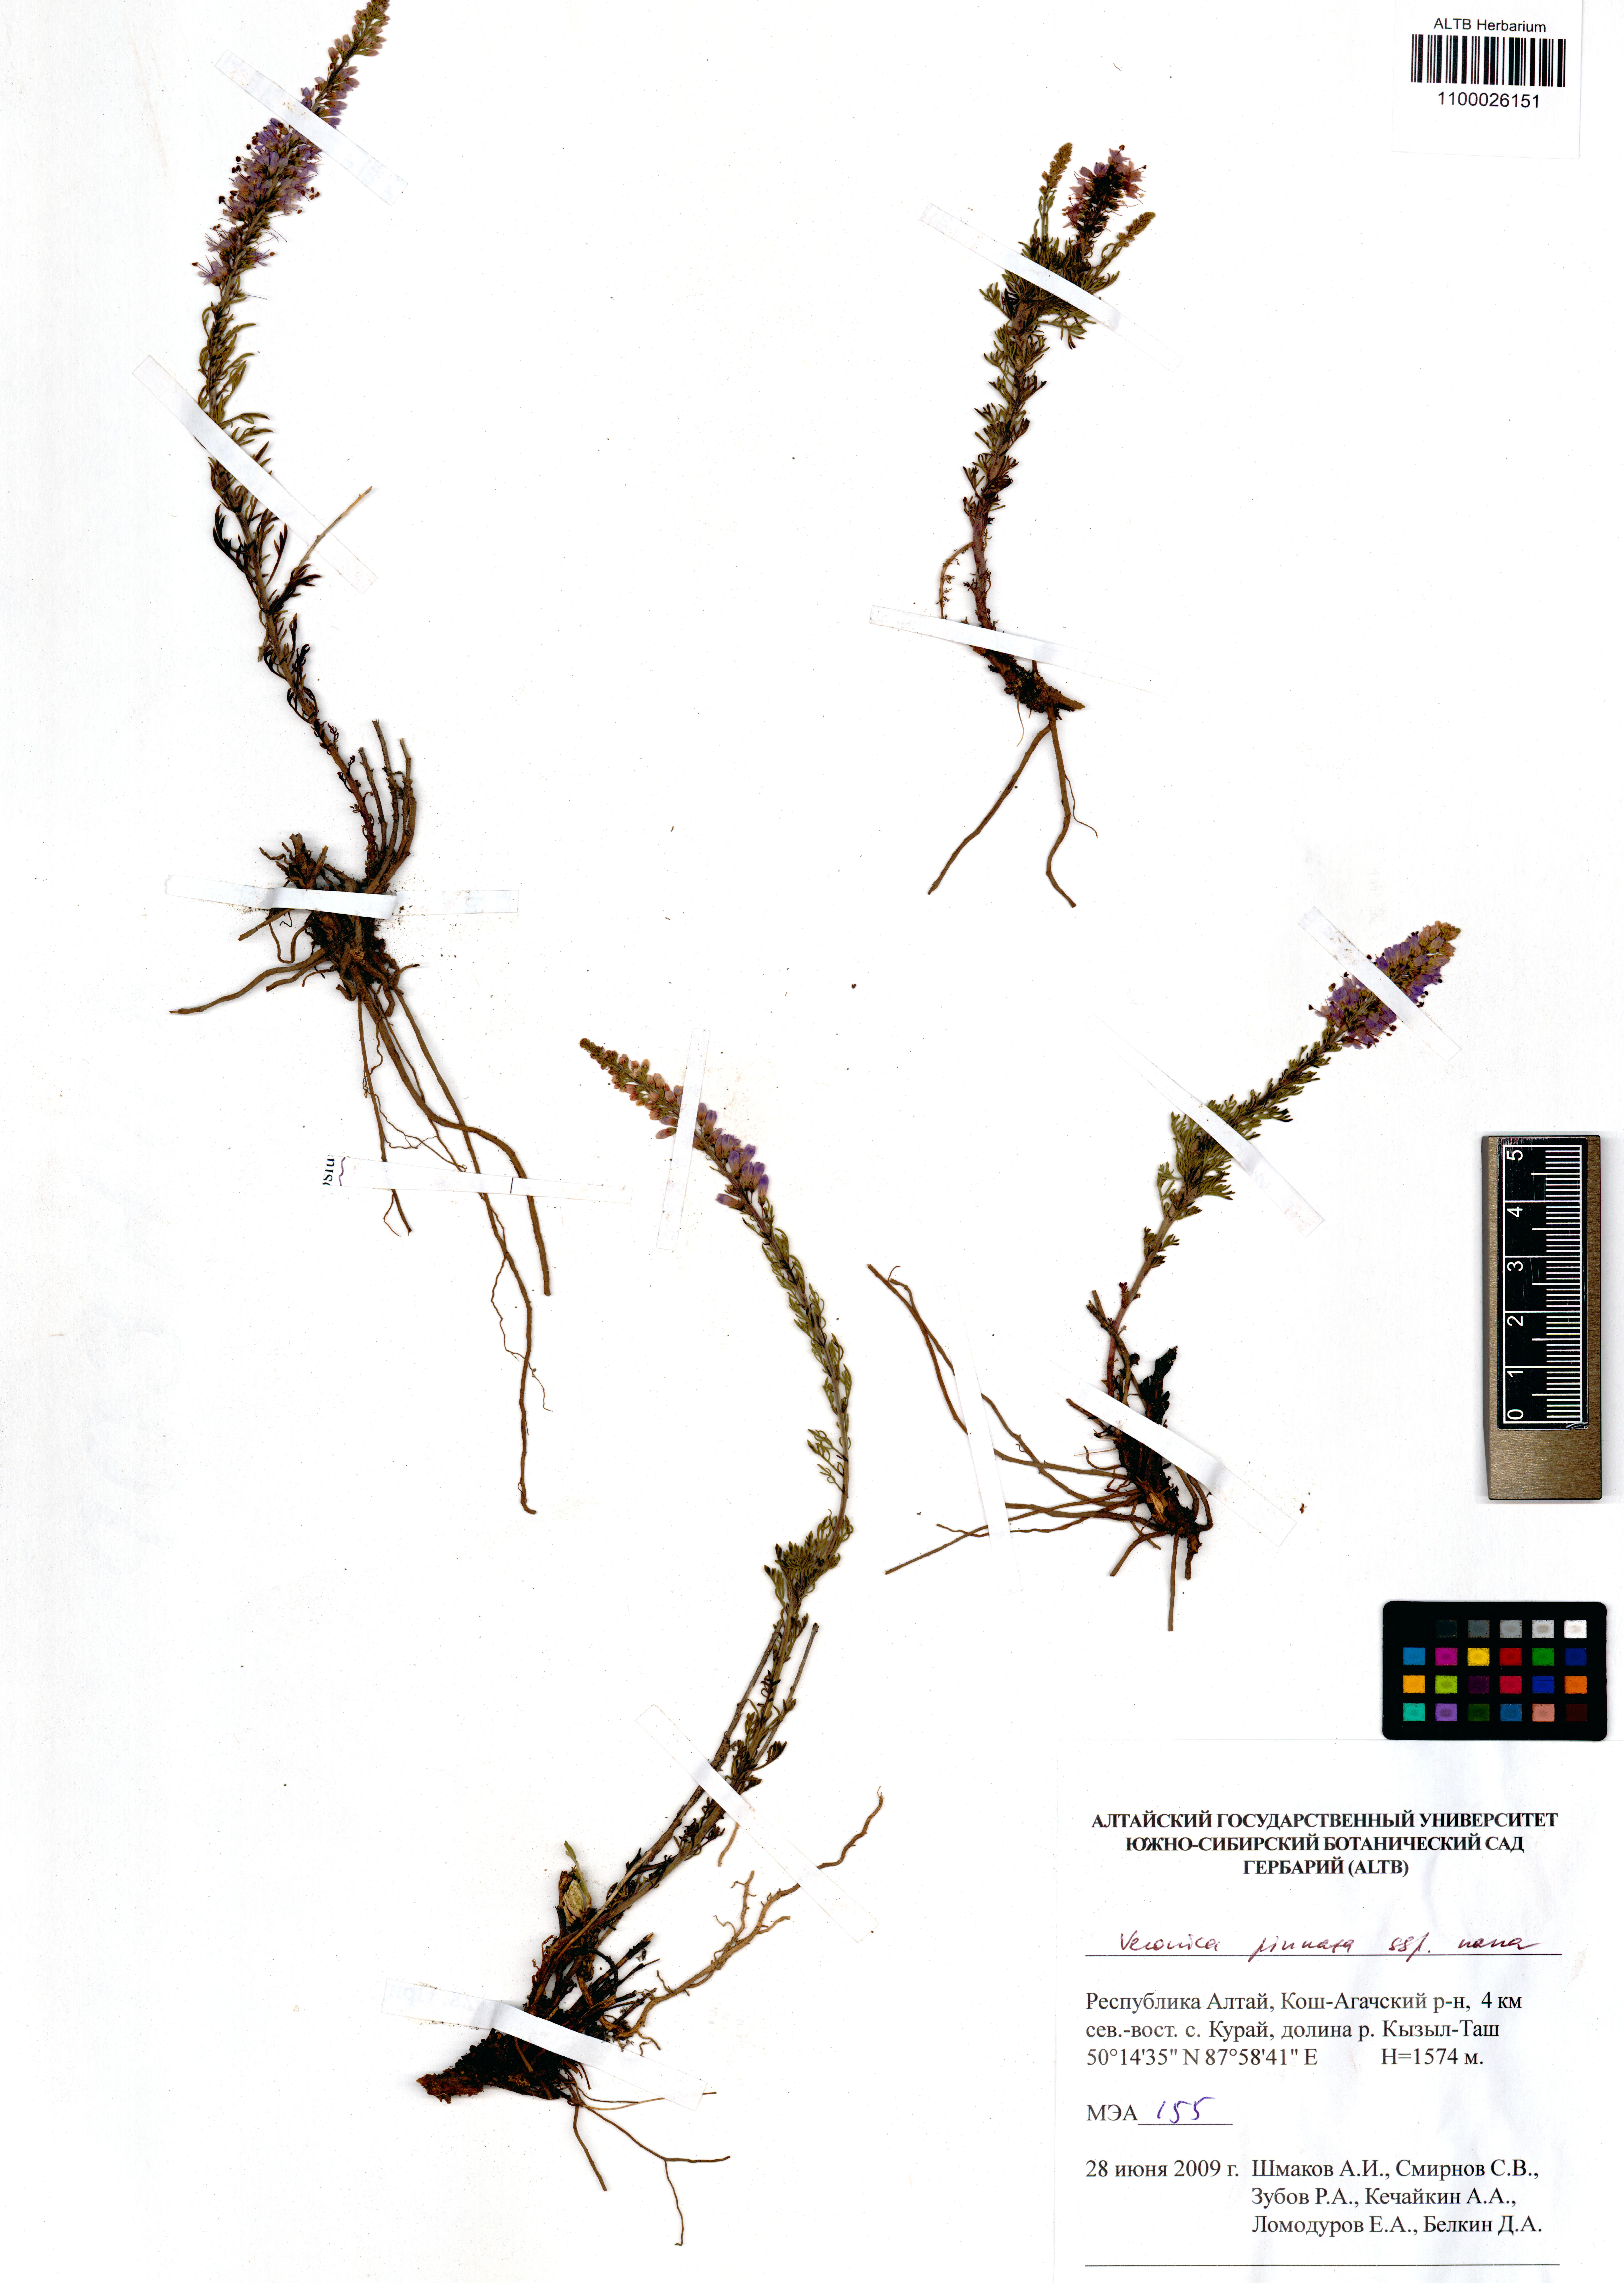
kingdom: Plantae
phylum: Tracheophyta
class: Magnoliopsida
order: Lamiales
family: Plantaginaceae
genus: Veronica
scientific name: Veronica pinnata
